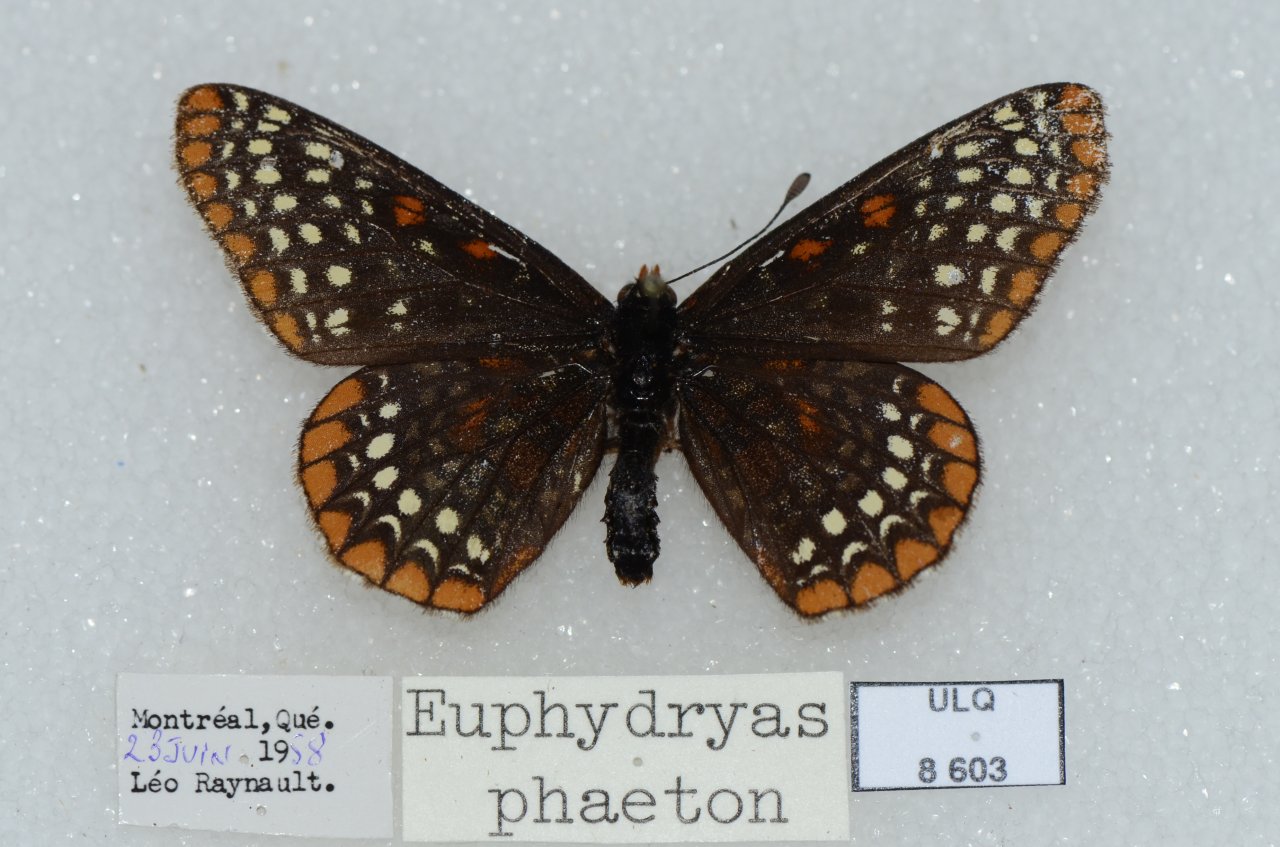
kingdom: Animalia
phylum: Arthropoda
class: Insecta
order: Lepidoptera
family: Nymphalidae
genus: Euphydryas
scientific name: Euphydryas phaeton
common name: Baltimore Checkerspot
